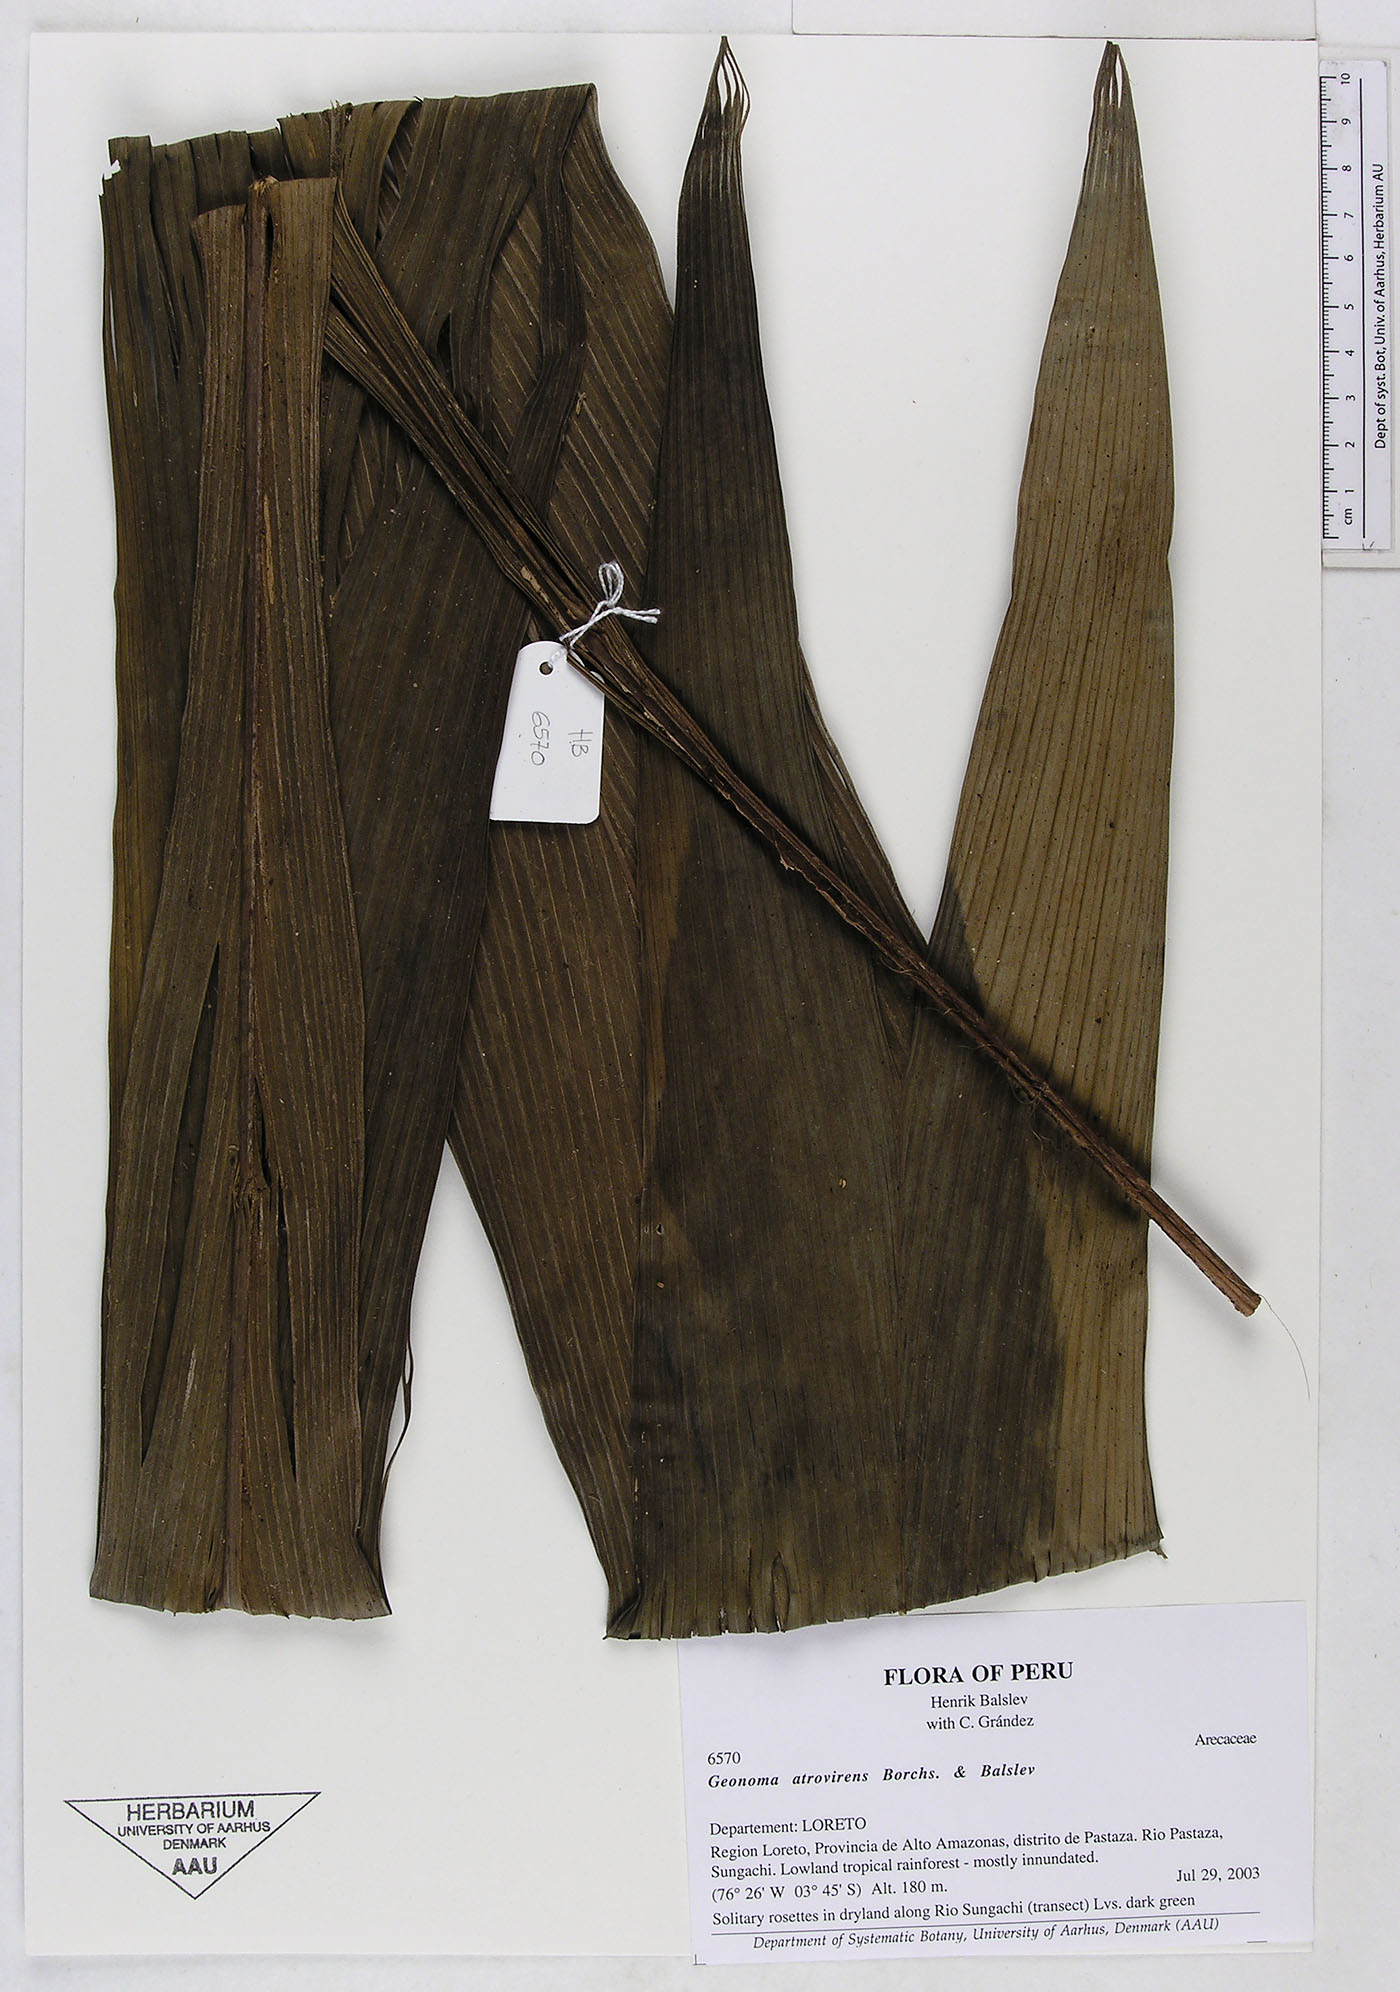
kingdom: Plantae
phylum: Tracheophyta
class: Liliopsida
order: Arecales
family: Arecaceae
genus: Geonoma
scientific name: Geonoma macrostachys
